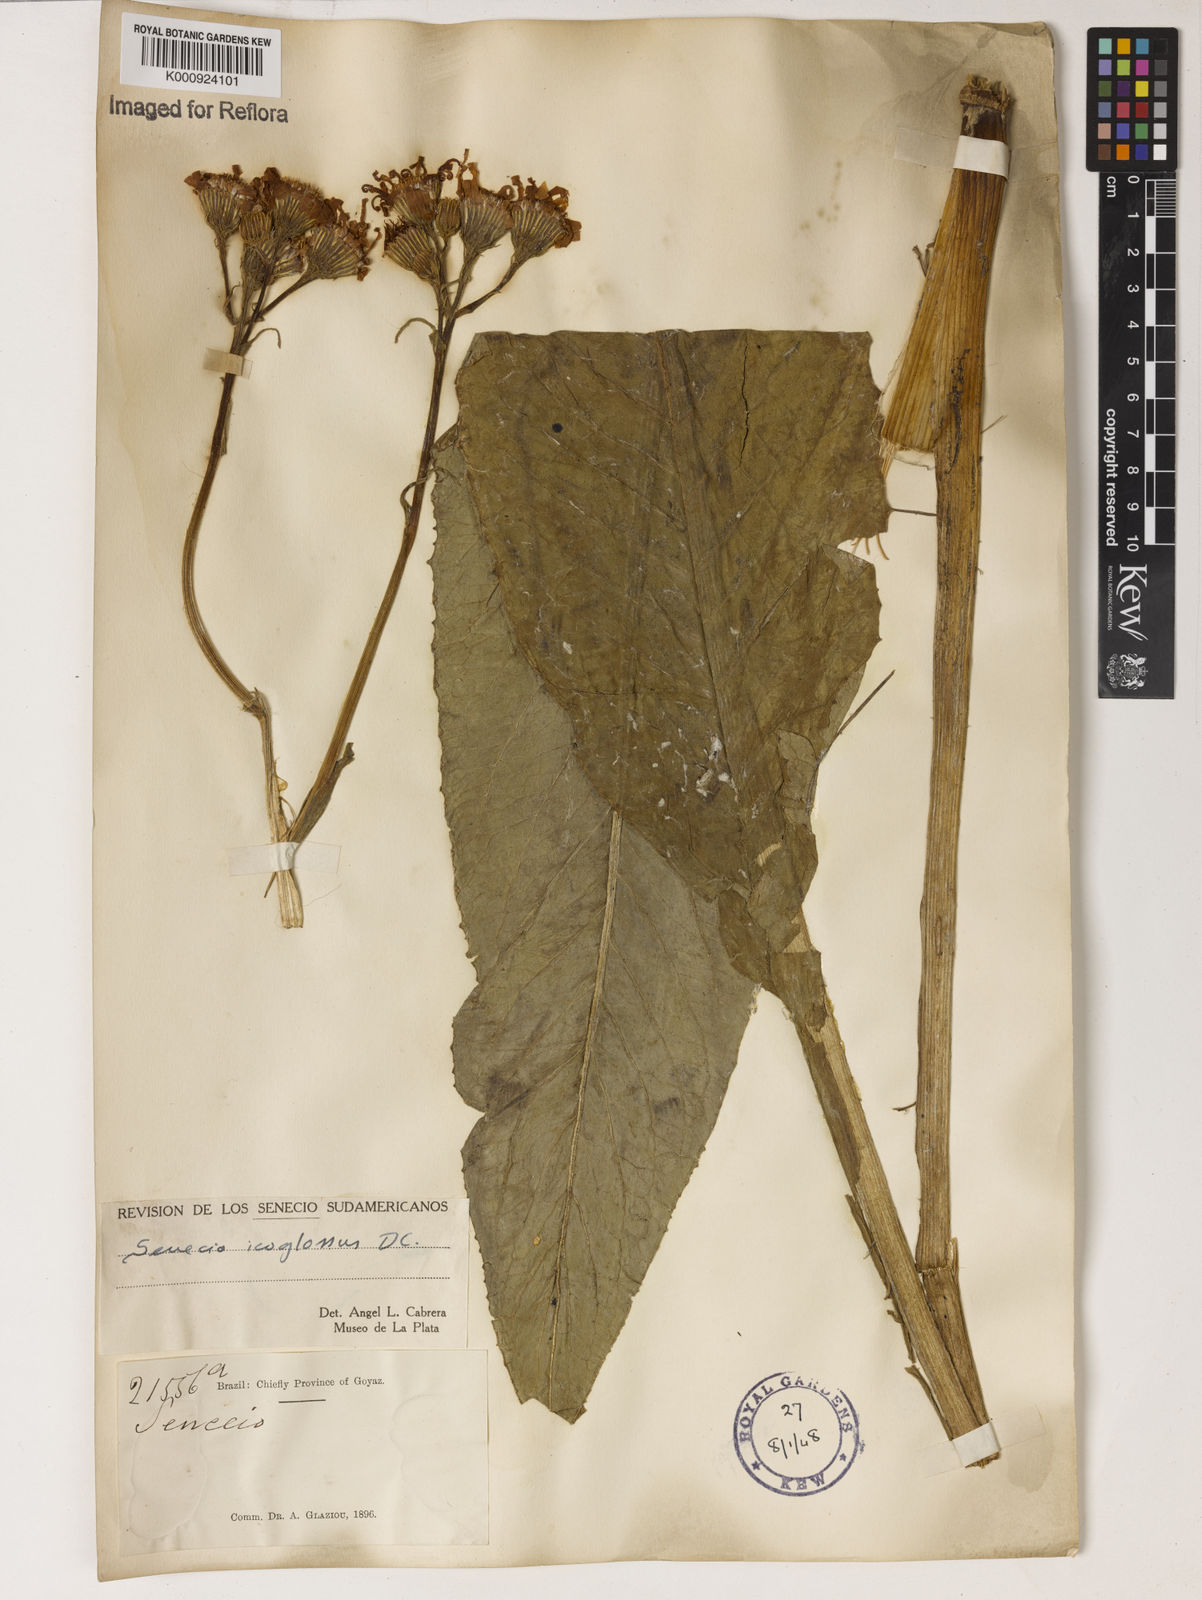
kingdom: Plantae
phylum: Tracheophyta
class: Magnoliopsida
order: Asterales
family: Asteraceae
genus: Senecio
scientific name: Senecio icoglossus
